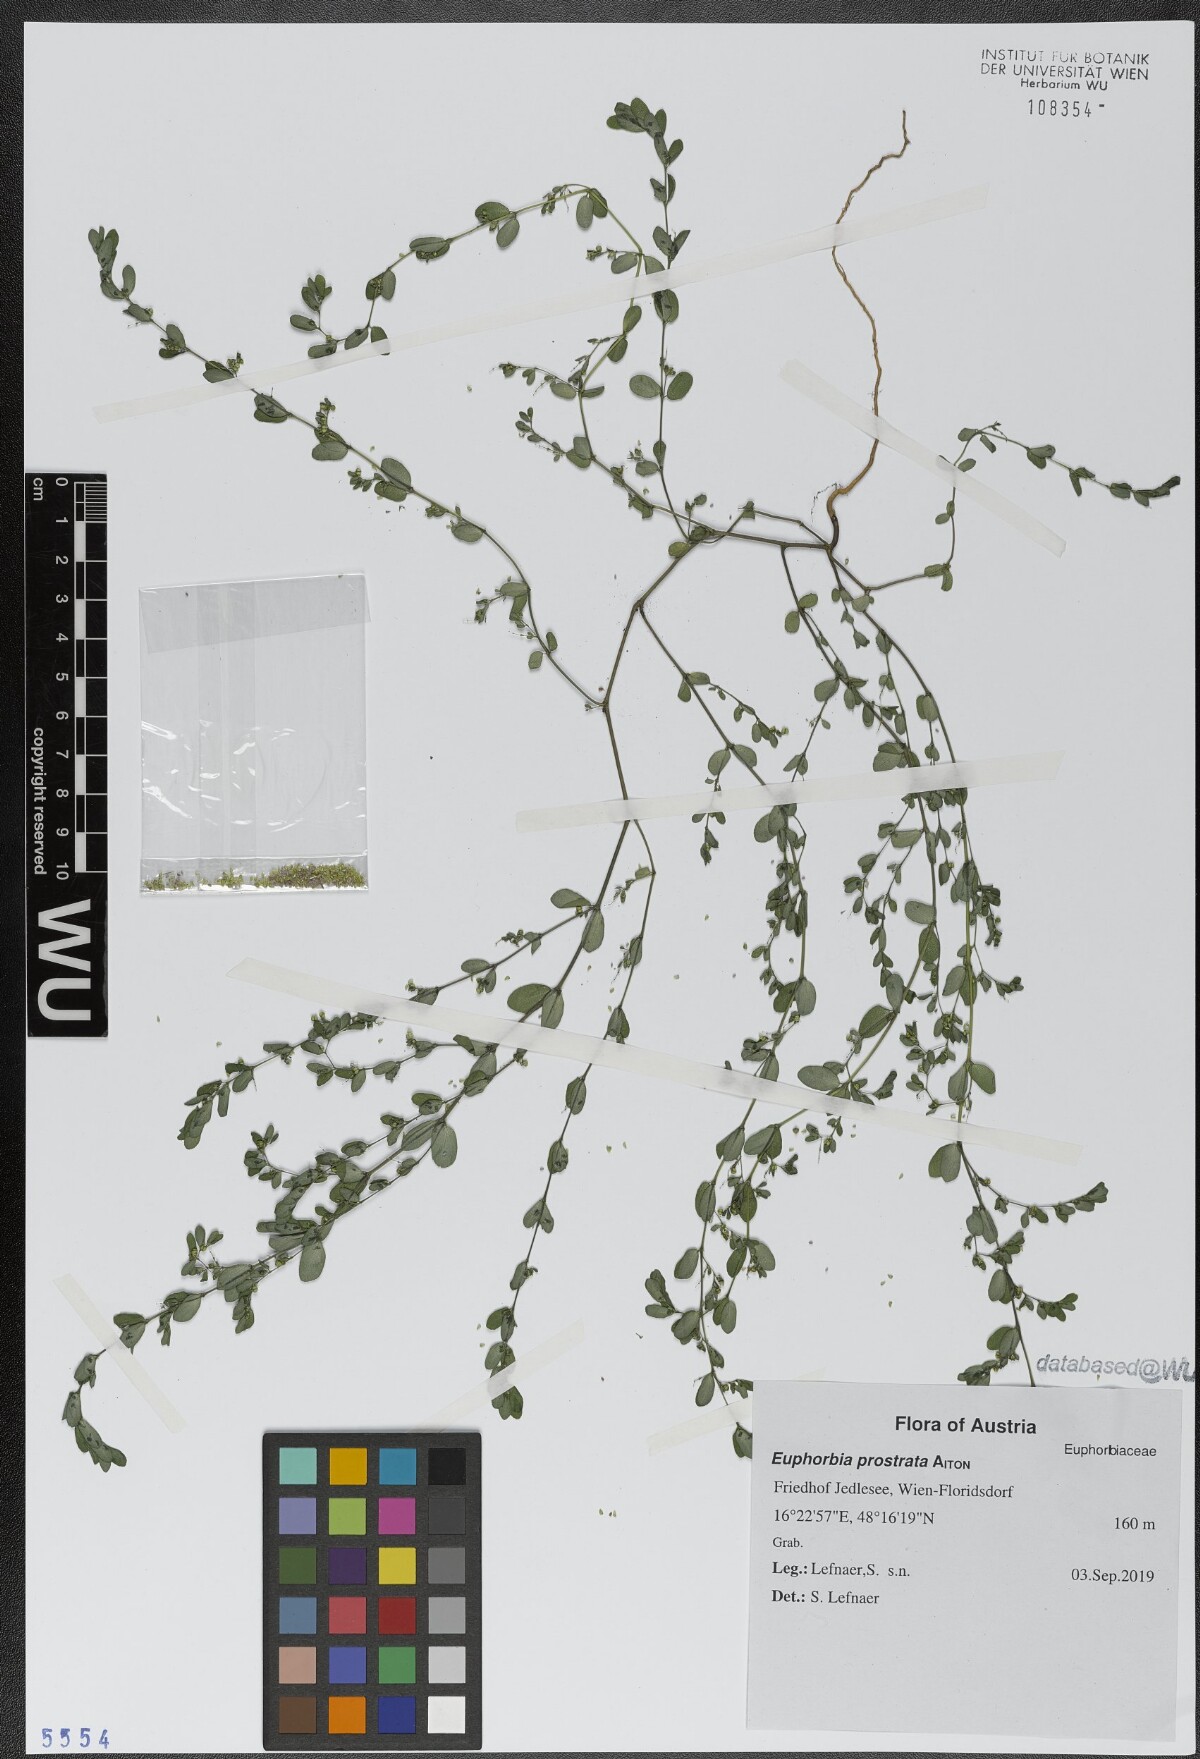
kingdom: Plantae
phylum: Tracheophyta
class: Magnoliopsida
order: Malpighiales
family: Euphorbiaceae
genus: Euphorbia
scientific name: Euphorbia prostrata
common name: Prostrate sandmat
